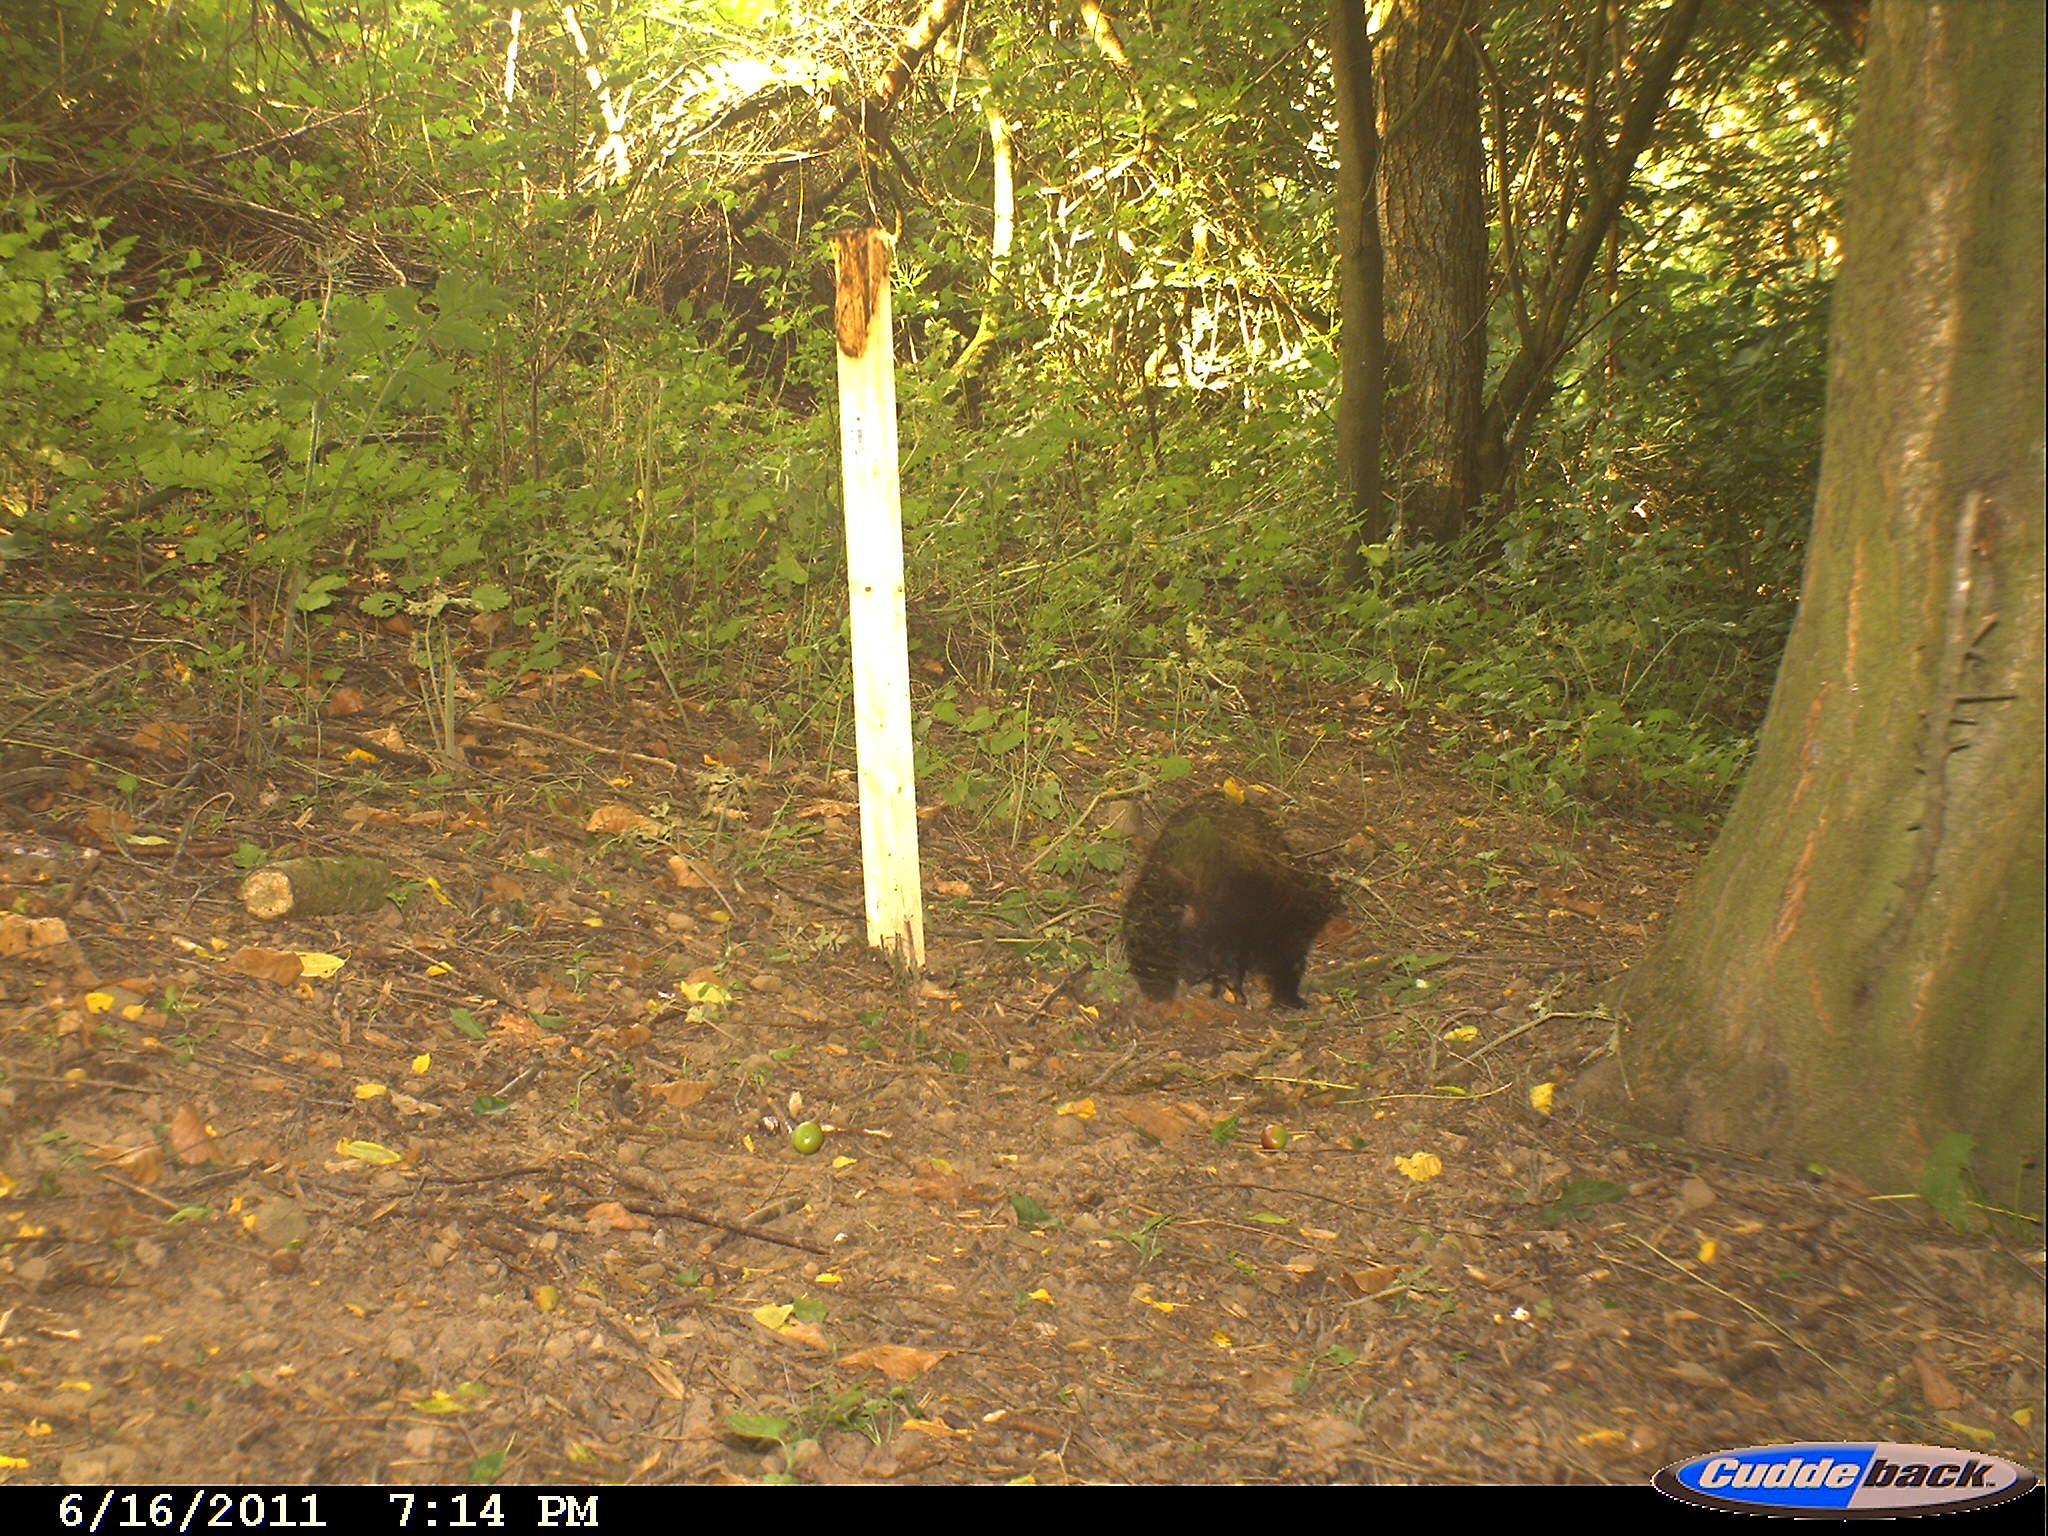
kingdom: Animalia
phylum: Chordata
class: Mammalia
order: Carnivora
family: Mustelidae
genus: Martes
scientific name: Martes
